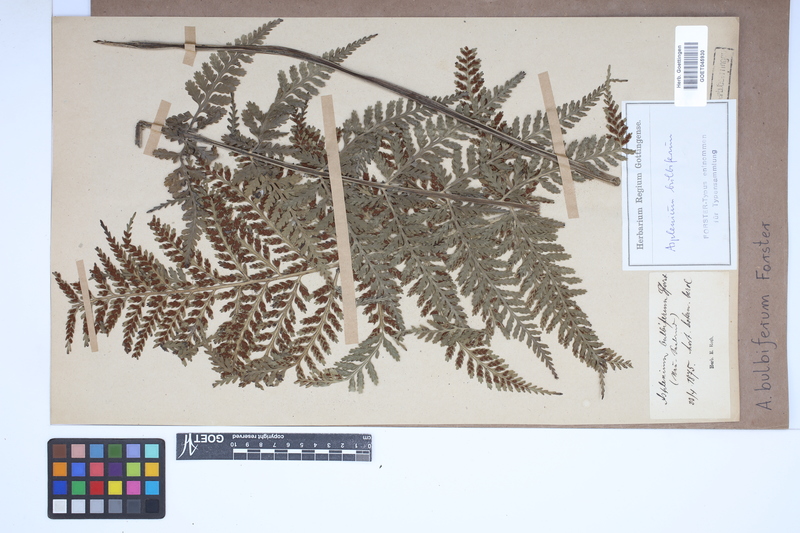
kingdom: Plantae
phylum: Tracheophyta
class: Polypodiopsida
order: Polypodiales
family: Aspleniaceae
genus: Asplenium
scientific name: Asplenium bulbiferum
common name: Mother fern
